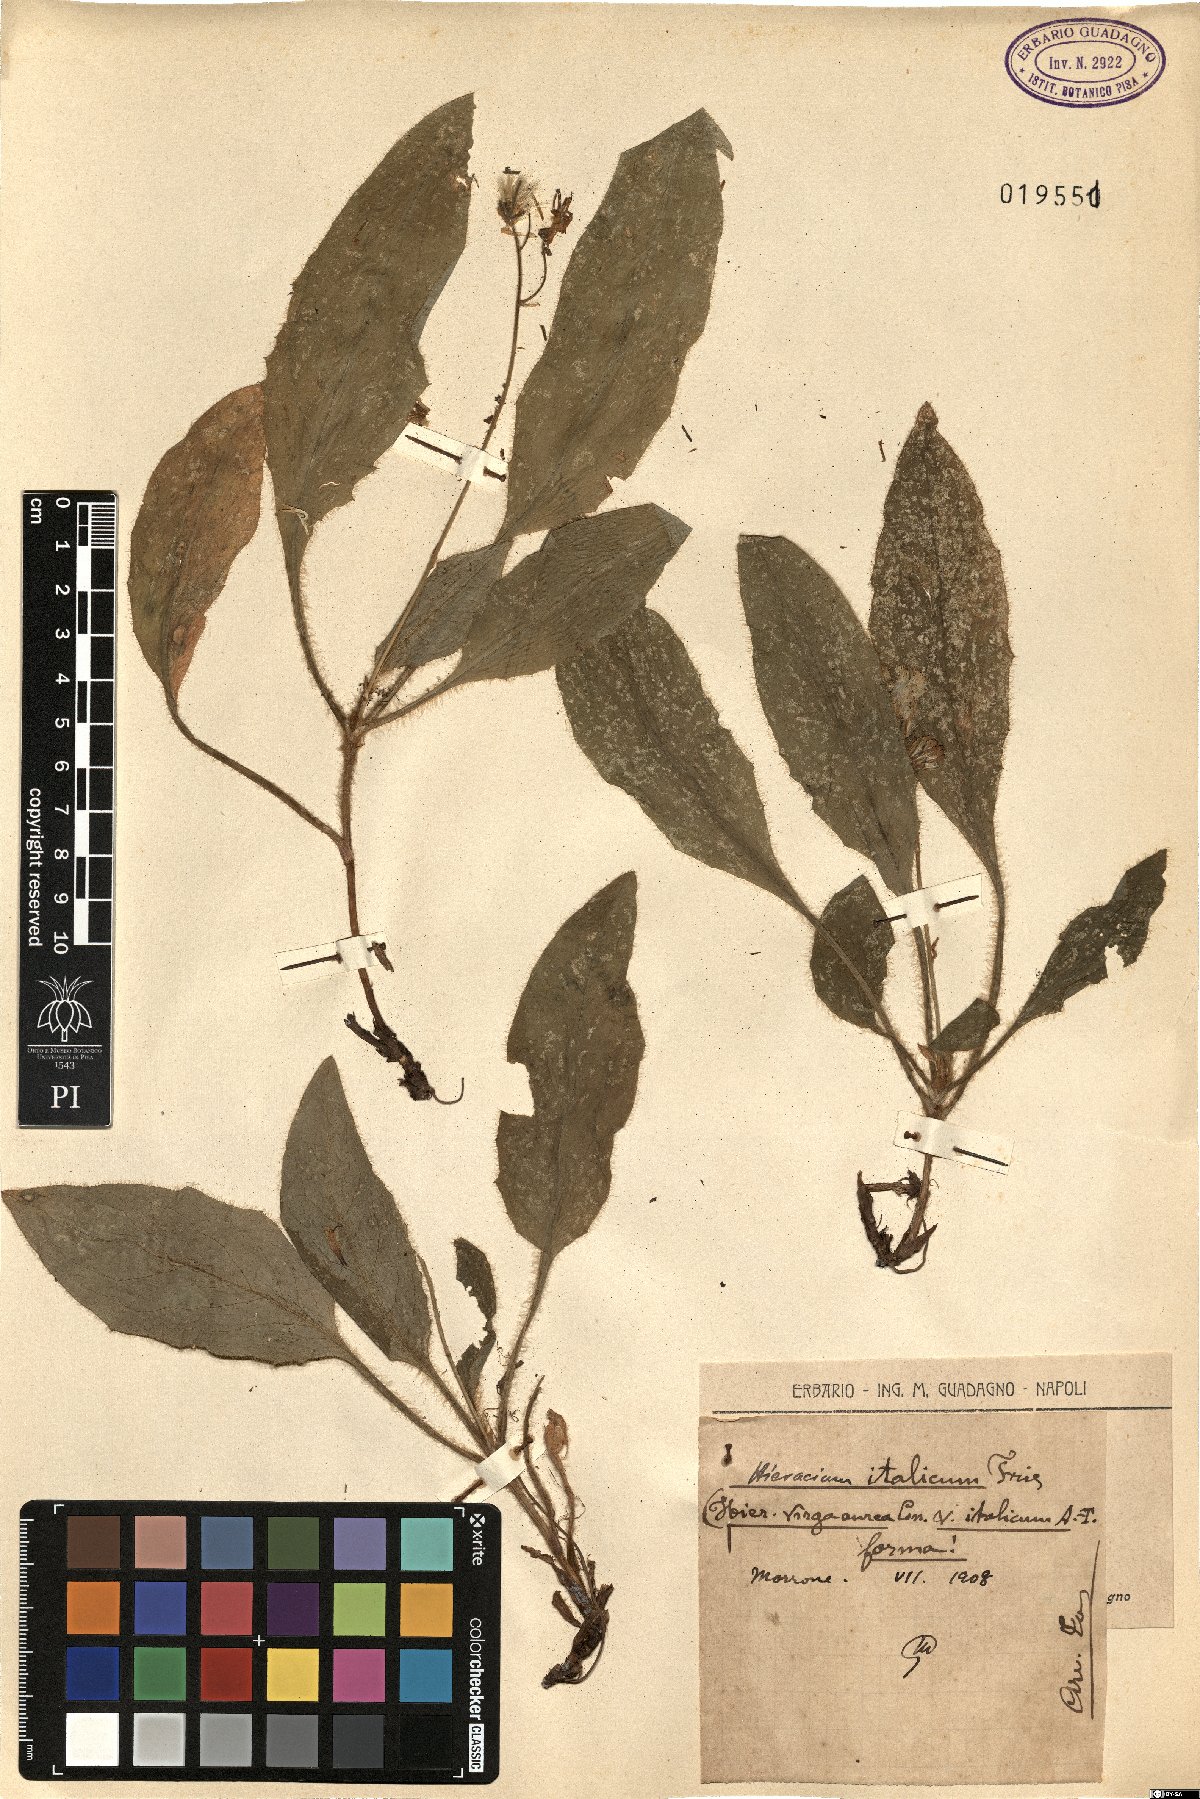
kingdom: Plantae
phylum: Tracheophyta
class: Magnoliopsida
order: Asterales
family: Asteraceae
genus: Hieracium
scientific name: Hieracium racemosum
